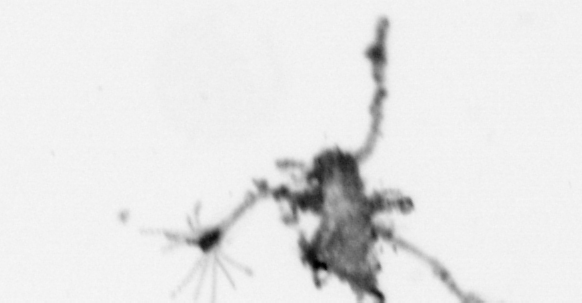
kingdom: Animalia
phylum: Cnidaria
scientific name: Cnidaria
